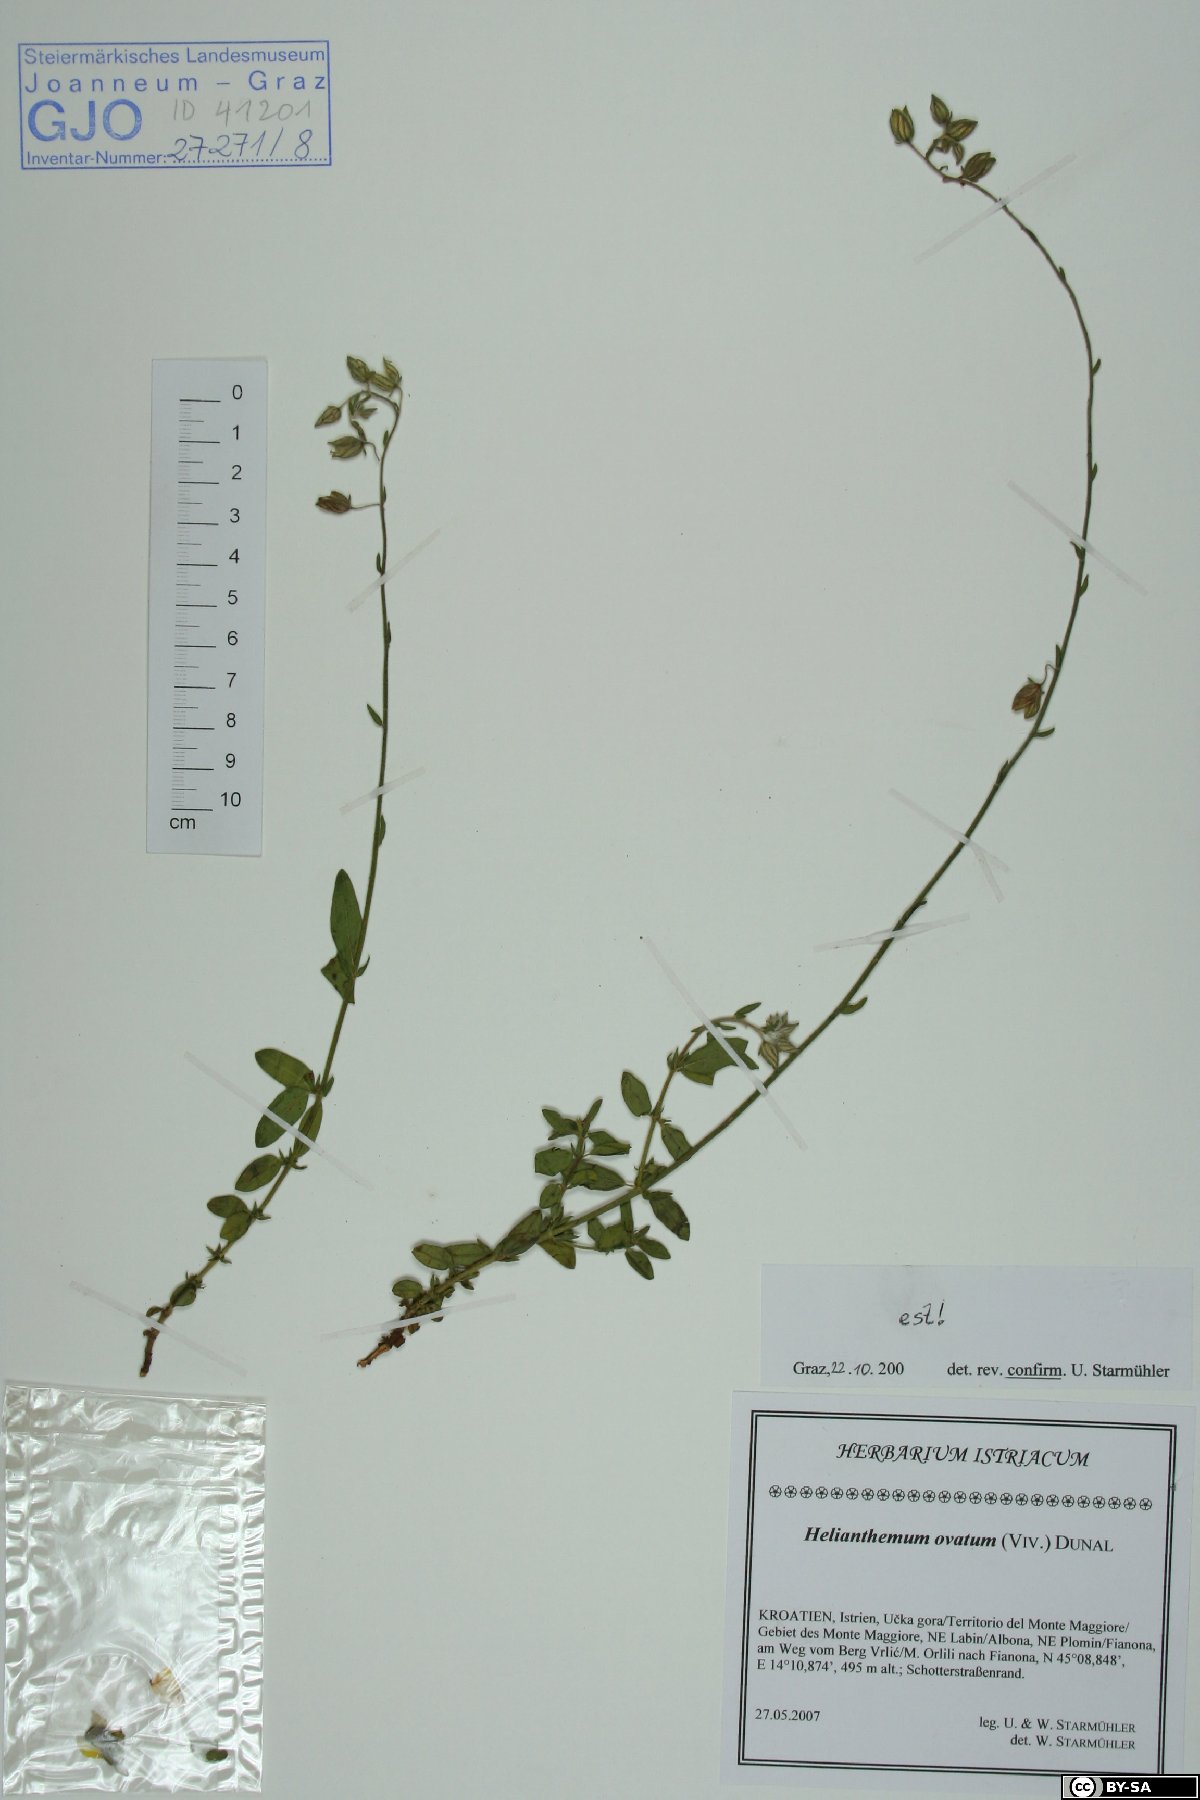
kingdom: Plantae
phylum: Tracheophyta
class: Magnoliopsida
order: Malvales
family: Cistaceae
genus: Helianthemum
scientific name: Helianthemum nummularium
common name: Common rock-rose
